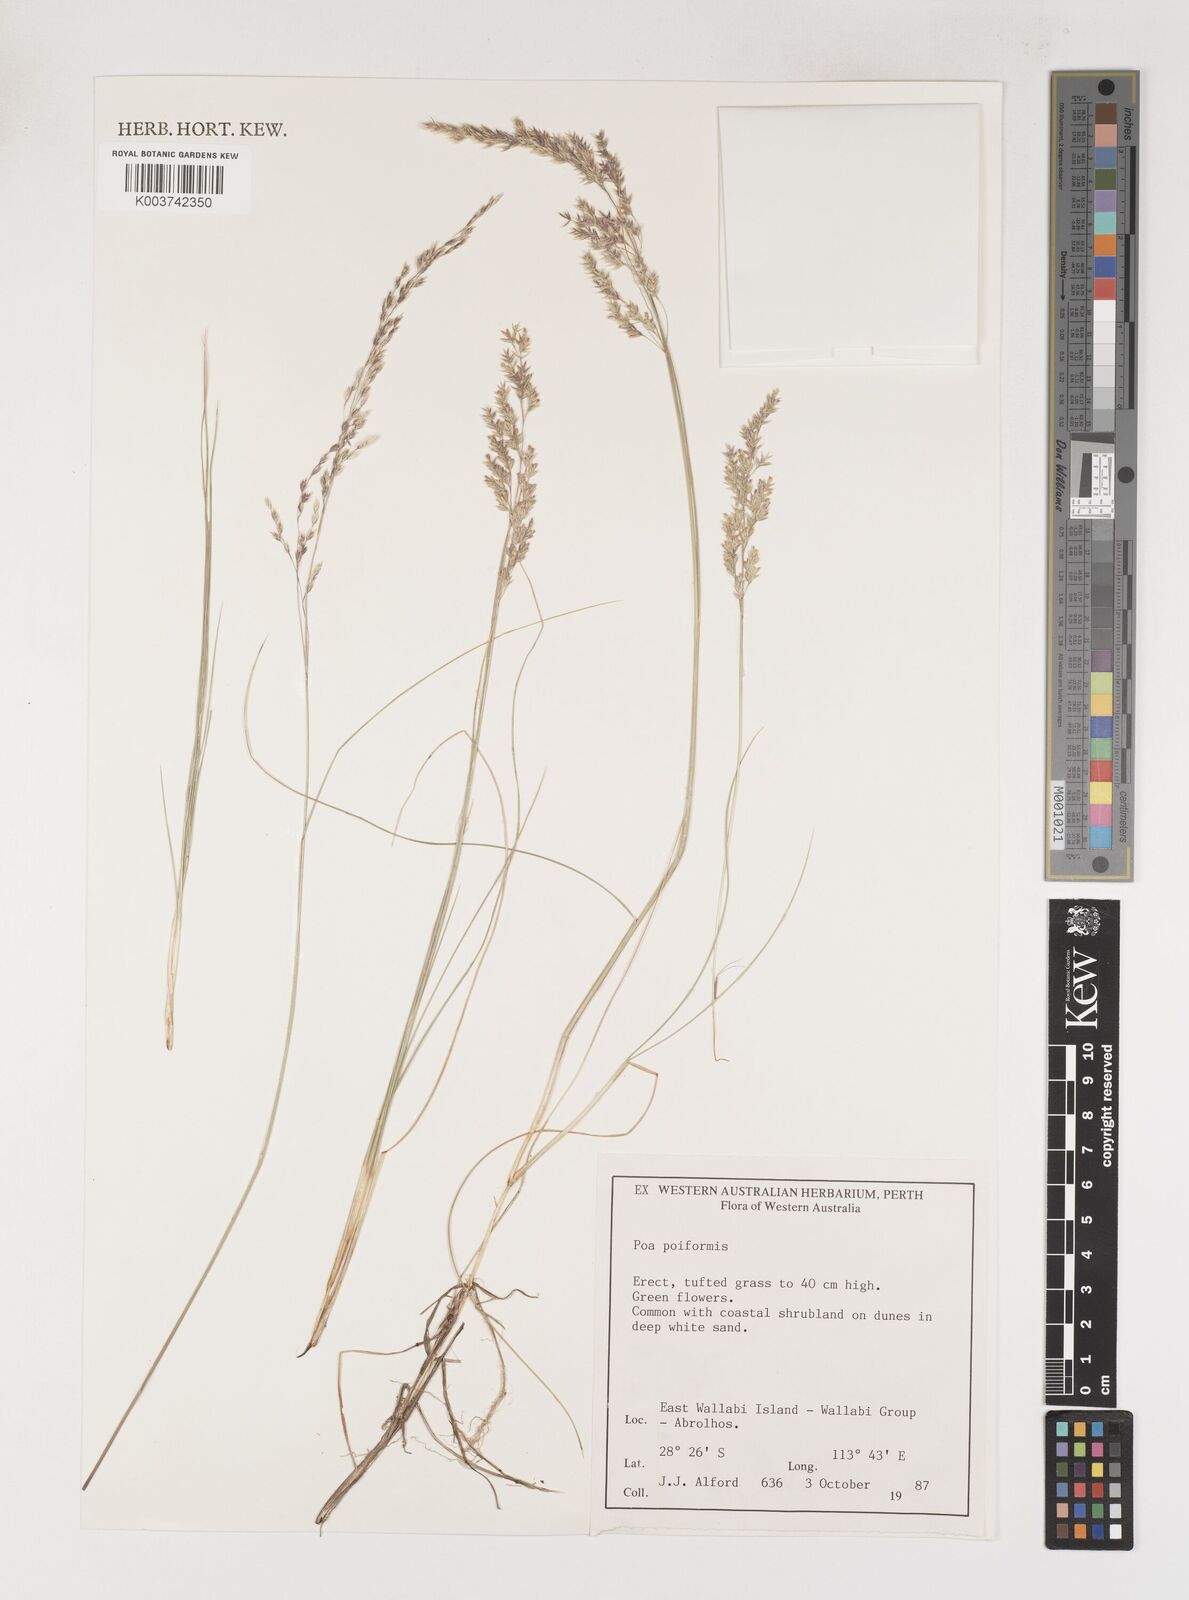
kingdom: Plantae
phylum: Tracheophyta
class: Liliopsida
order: Poales
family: Poaceae
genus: Poa
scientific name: Poa poiformis
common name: Tussock poa
